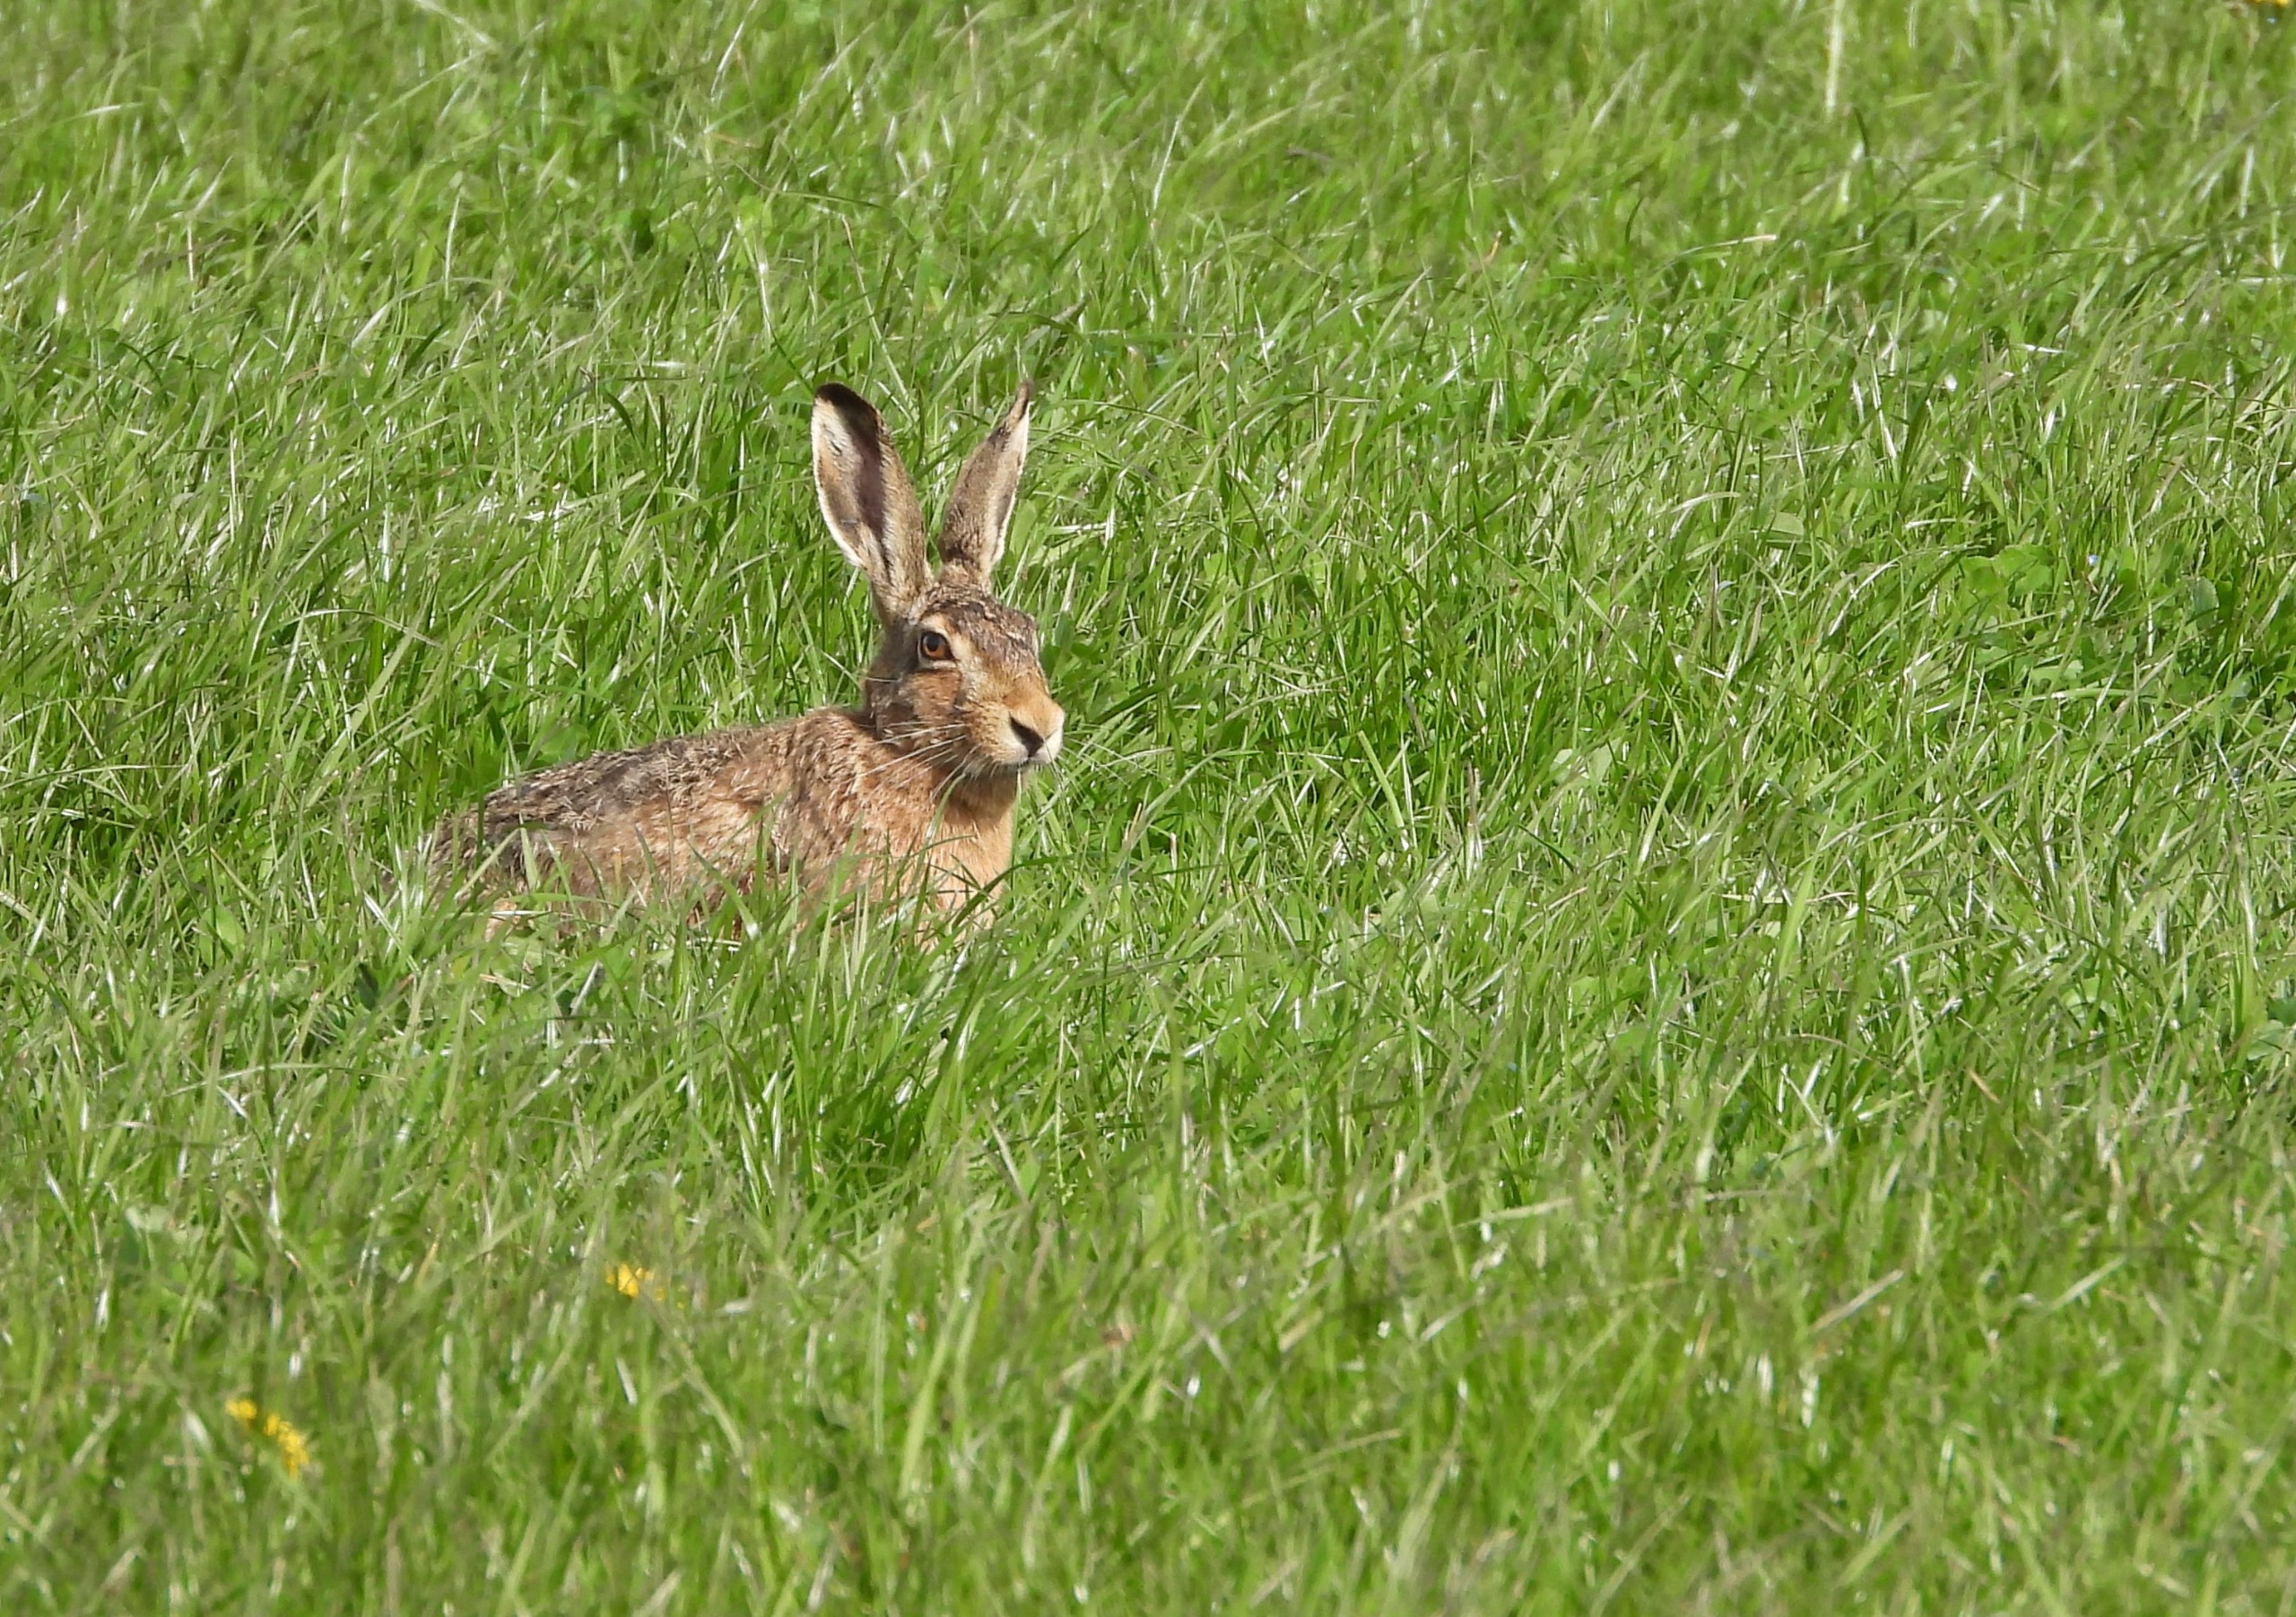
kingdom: Animalia
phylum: Chordata
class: Mammalia
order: Lagomorpha
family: Leporidae
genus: Lepus
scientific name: Lepus europaeus
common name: Hare
